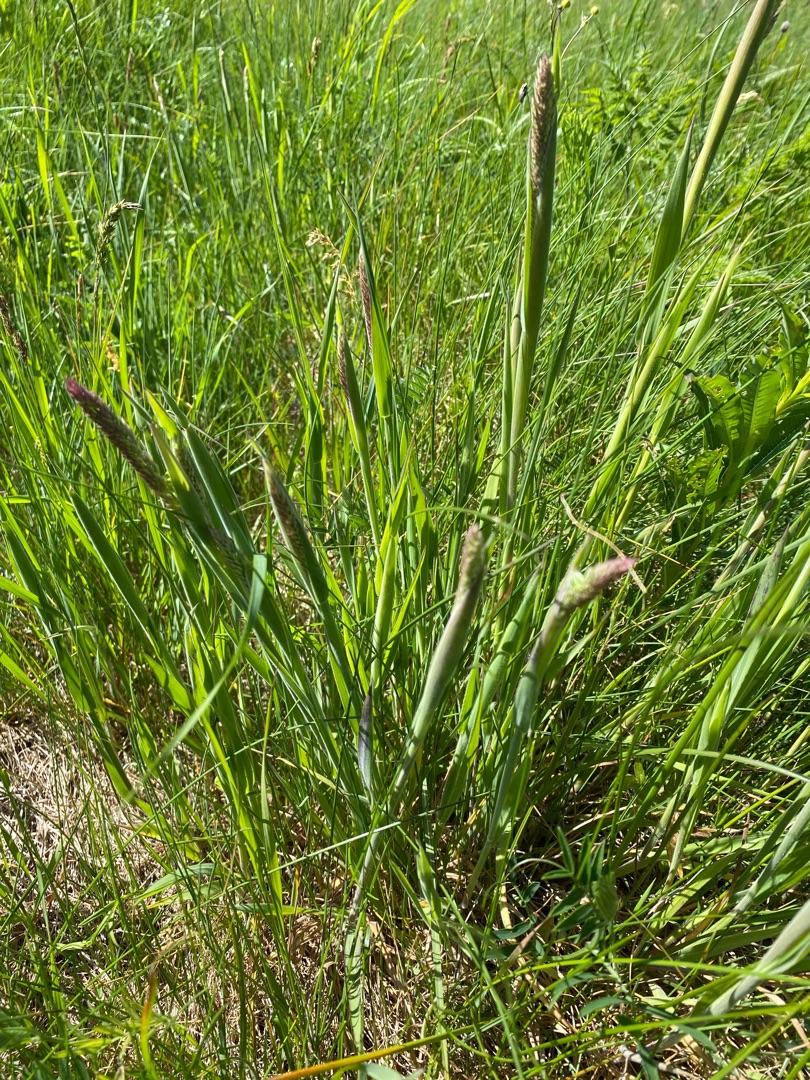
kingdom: Plantae
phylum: Tracheophyta
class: Liliopsida
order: Poales
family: Poaceae
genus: Holcus
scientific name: Holcus lanatus
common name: Fløjlsgræs
